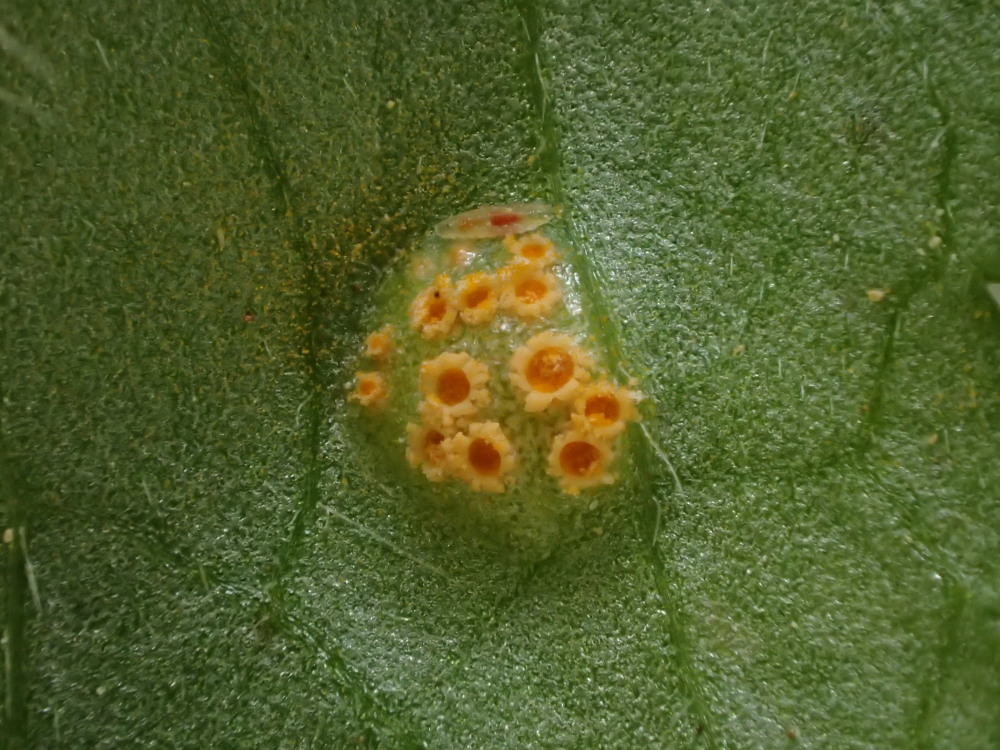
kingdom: Fungi
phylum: Basidiomycota
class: Pucciniomycetes
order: Pucciniales
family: Pucciniaceae
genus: Puccinia
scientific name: Puccinia recondita
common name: Brown rust of wheat
